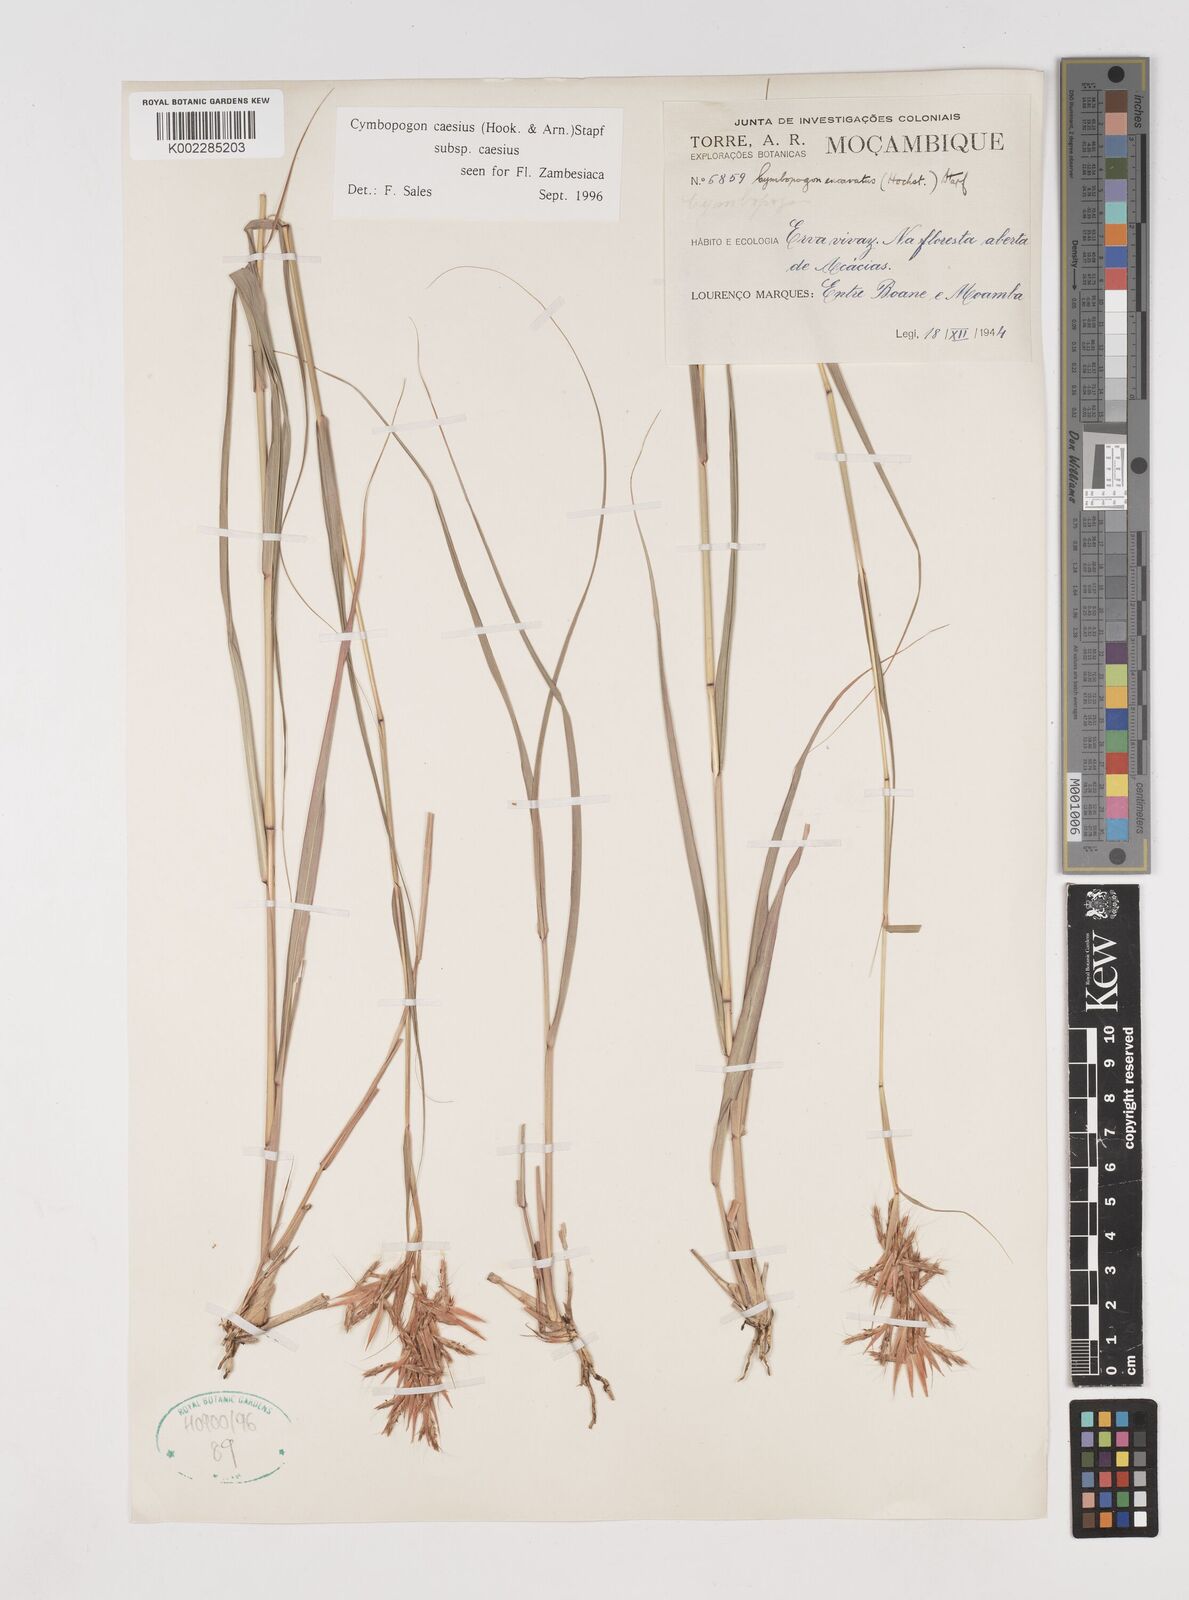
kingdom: Plantae
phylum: Tracheophyta
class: Liliopsida
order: Poales
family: Poaceae
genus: Cymbopogon
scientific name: Cymbopogon caesius
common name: Kachi grass
